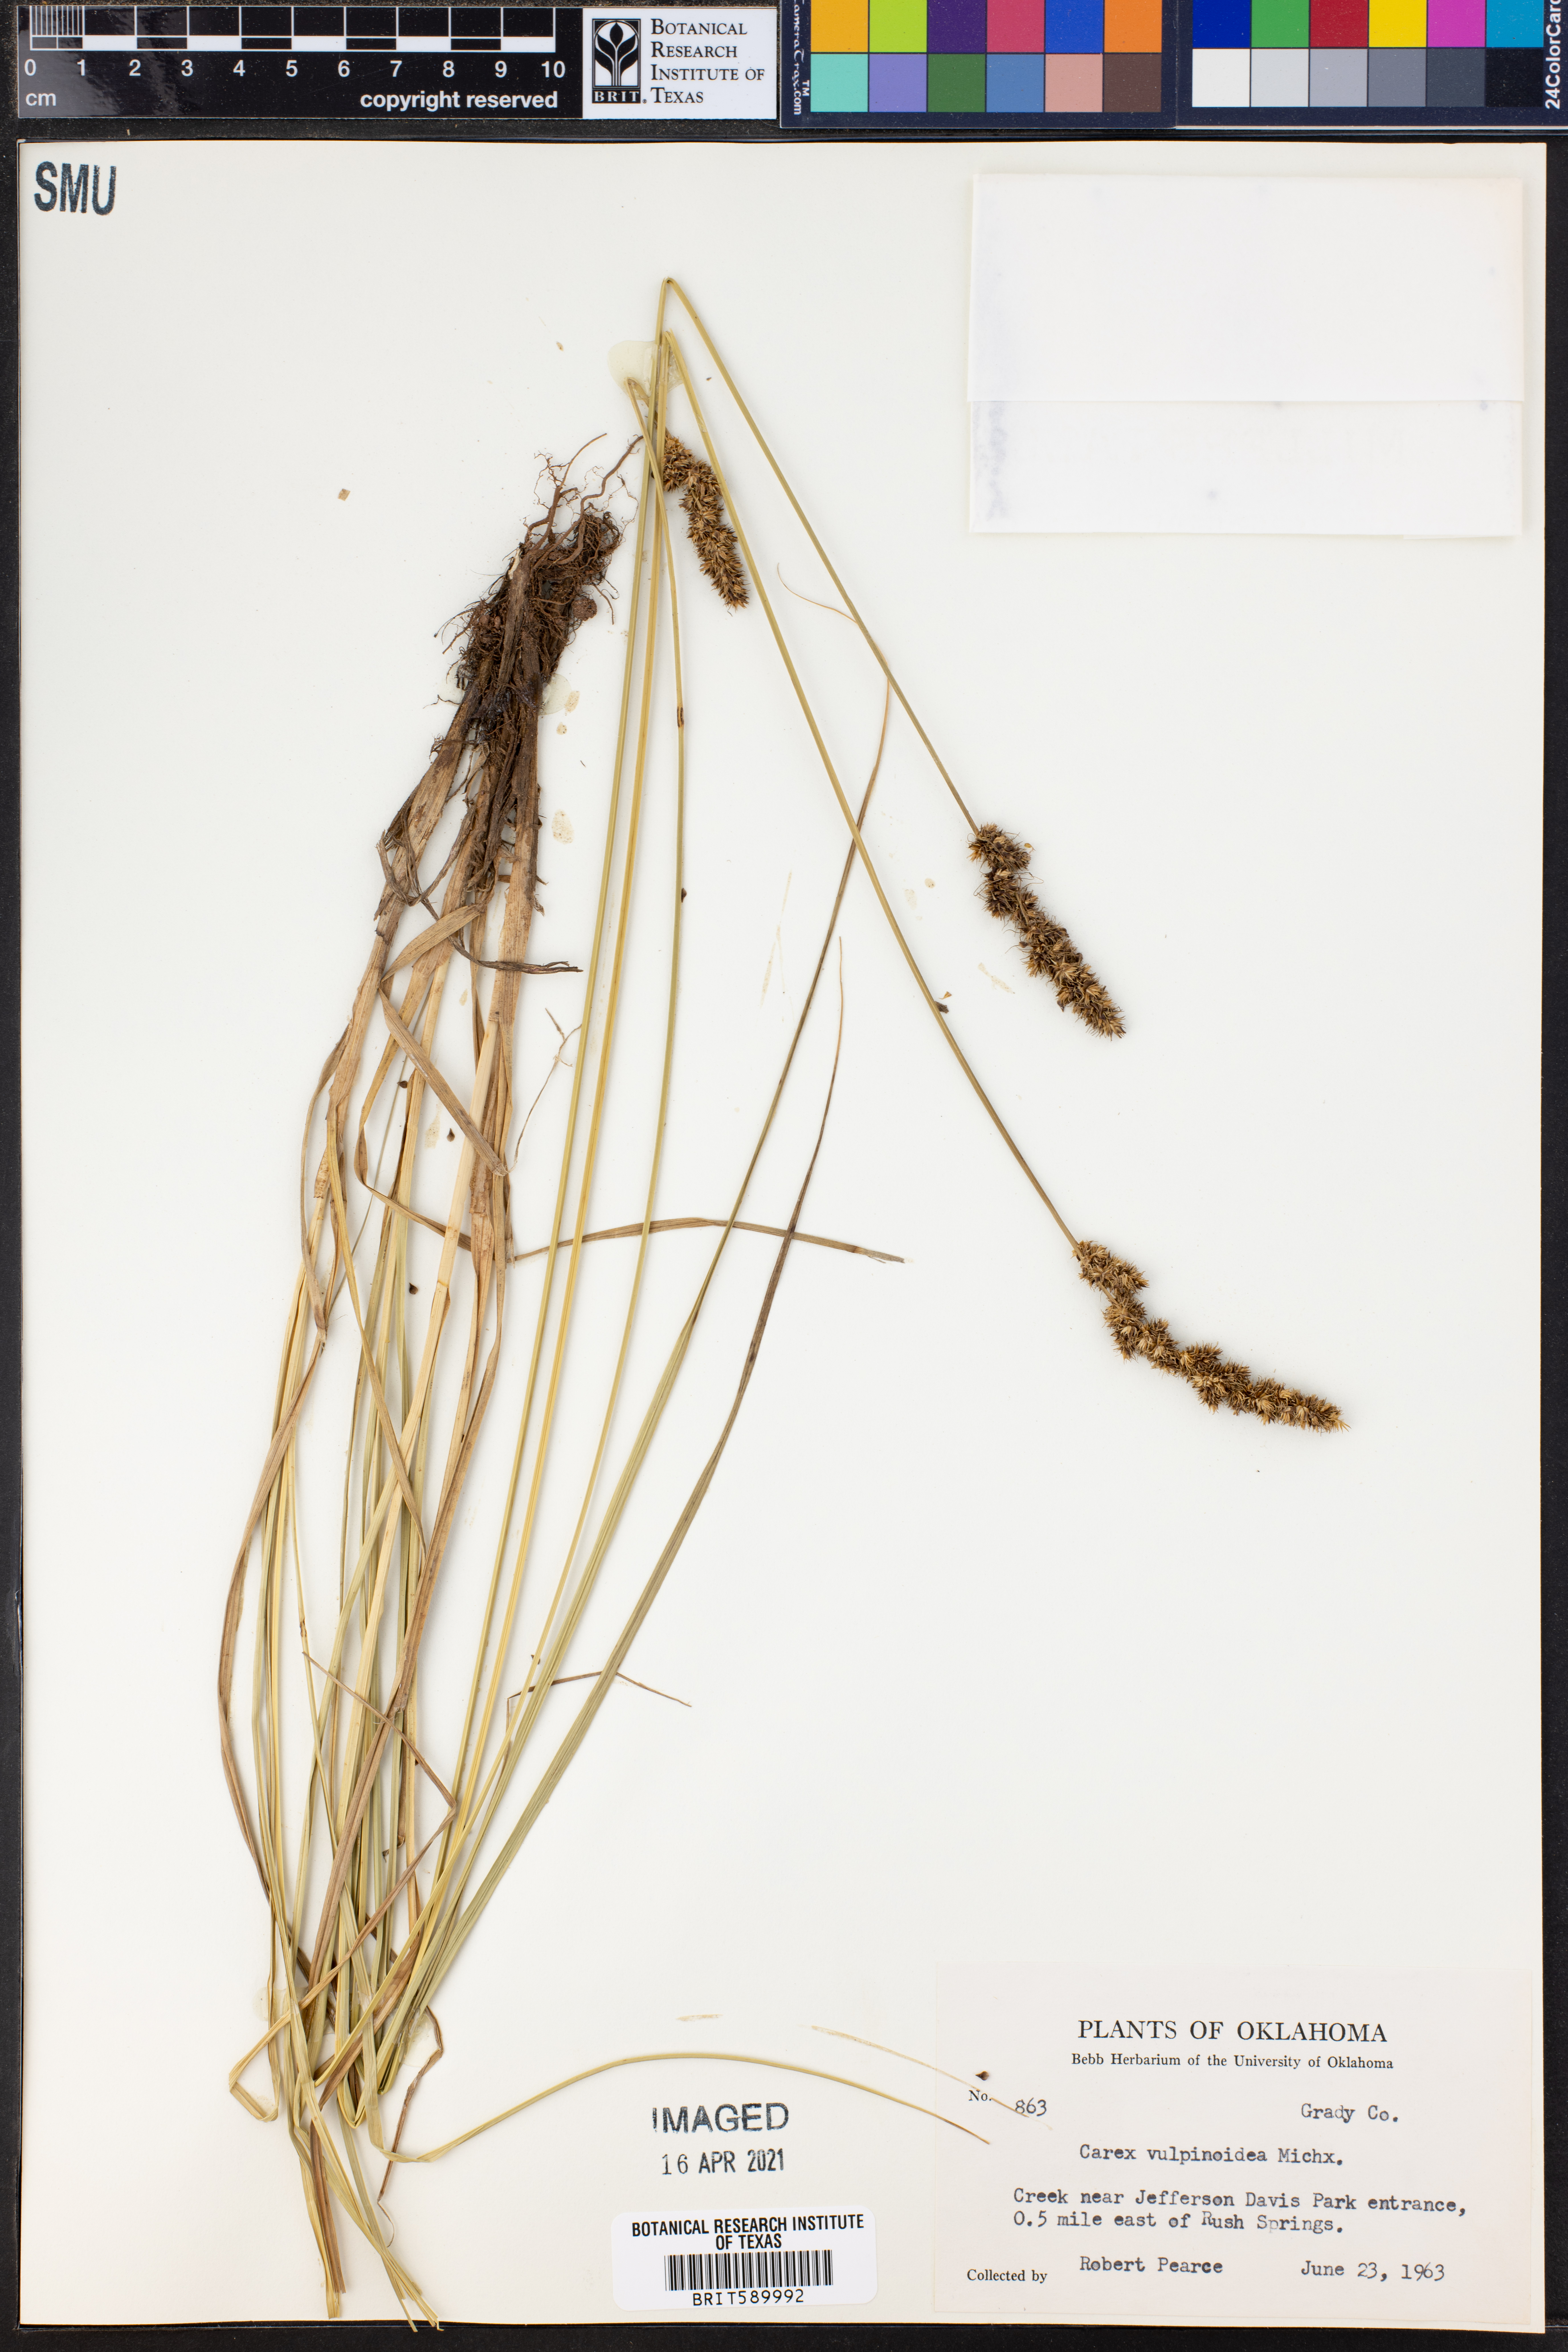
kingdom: Plantae
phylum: Tracheophyta
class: Liliopsida
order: Poales
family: Cyperaceae
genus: Carex
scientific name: Carex vulpinoidea
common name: American fox-sedge
